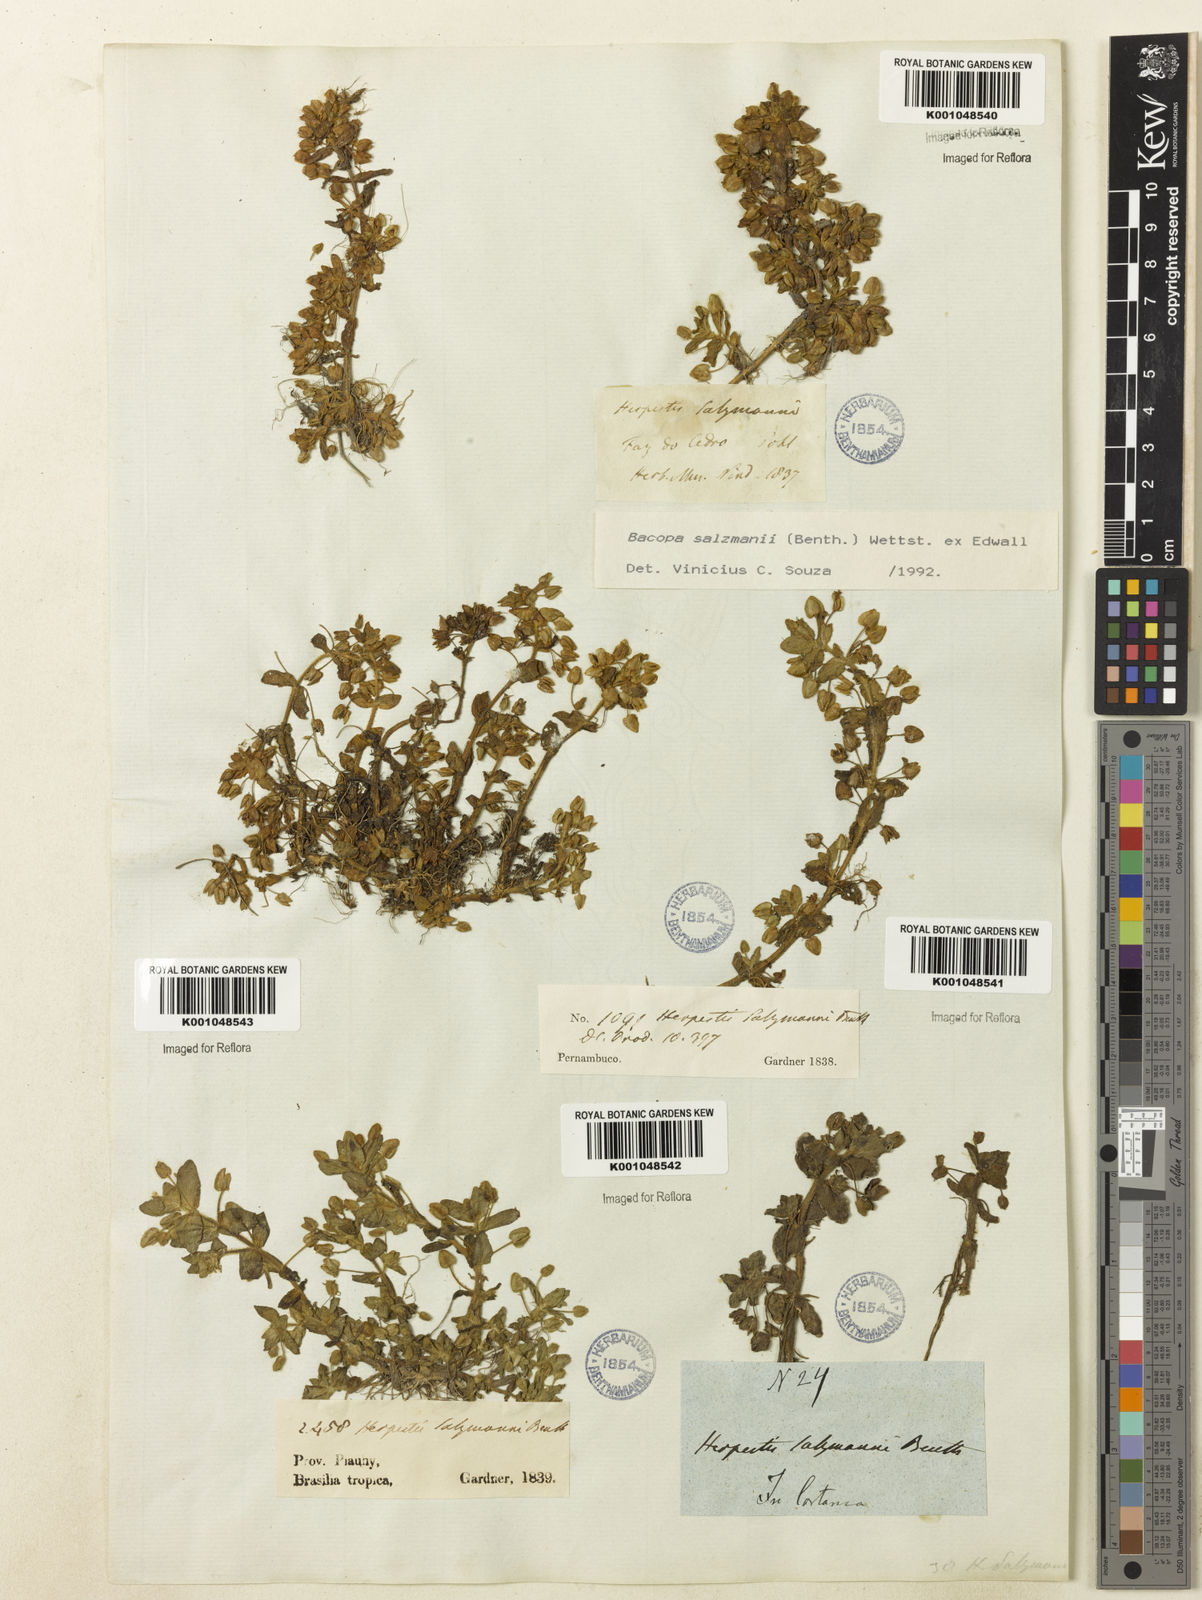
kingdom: Plantae
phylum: Tracheophyta
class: Magnoliopsida
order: Lamiales
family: Plantaginaceae
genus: Bacopa
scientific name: Bacopa salzmannii
